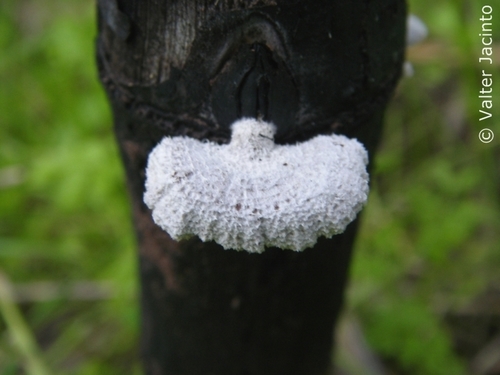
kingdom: Fungi
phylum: Basidiomycota
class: Agaricomycetes
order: Agaricales
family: Schizophyllaceae
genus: Schizophyllum
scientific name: Schizophyllum commune
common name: Common porecrust
